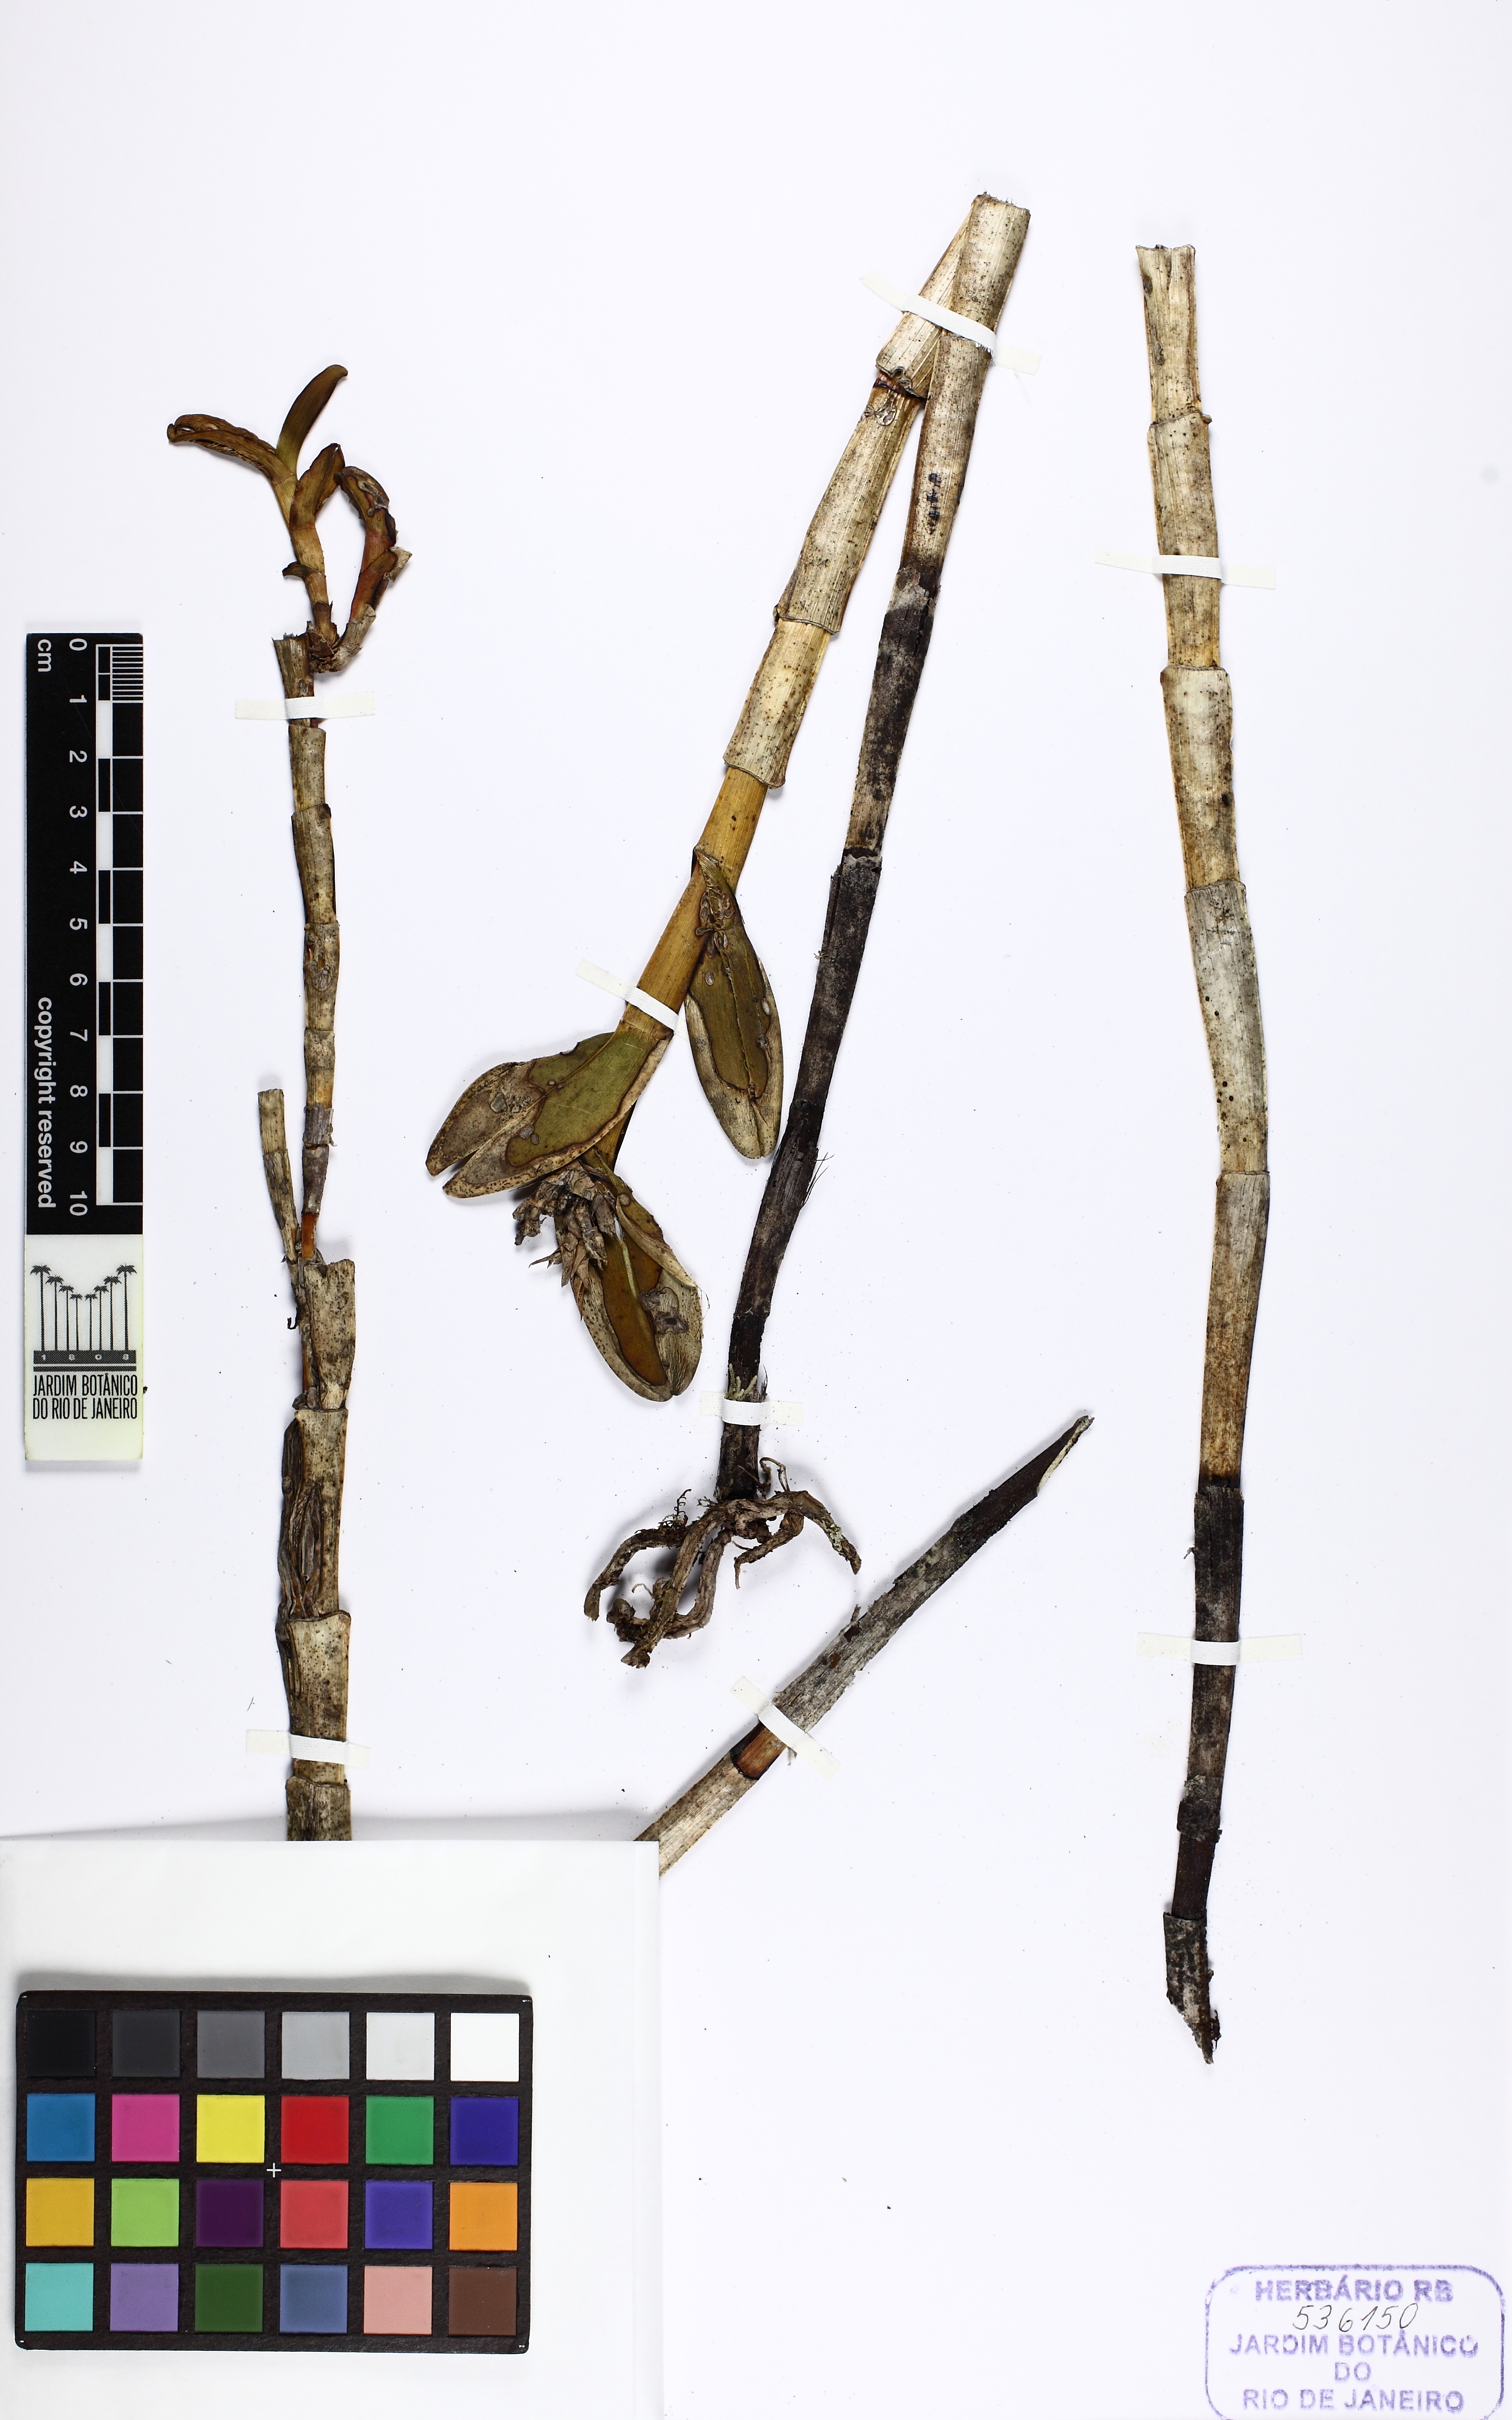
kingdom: Plantae
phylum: Tracheophyta
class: Liliopsida
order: Asparagales
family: Orchidaceae
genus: Epidendrum
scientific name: Epidendrum tumuc-humaciense
